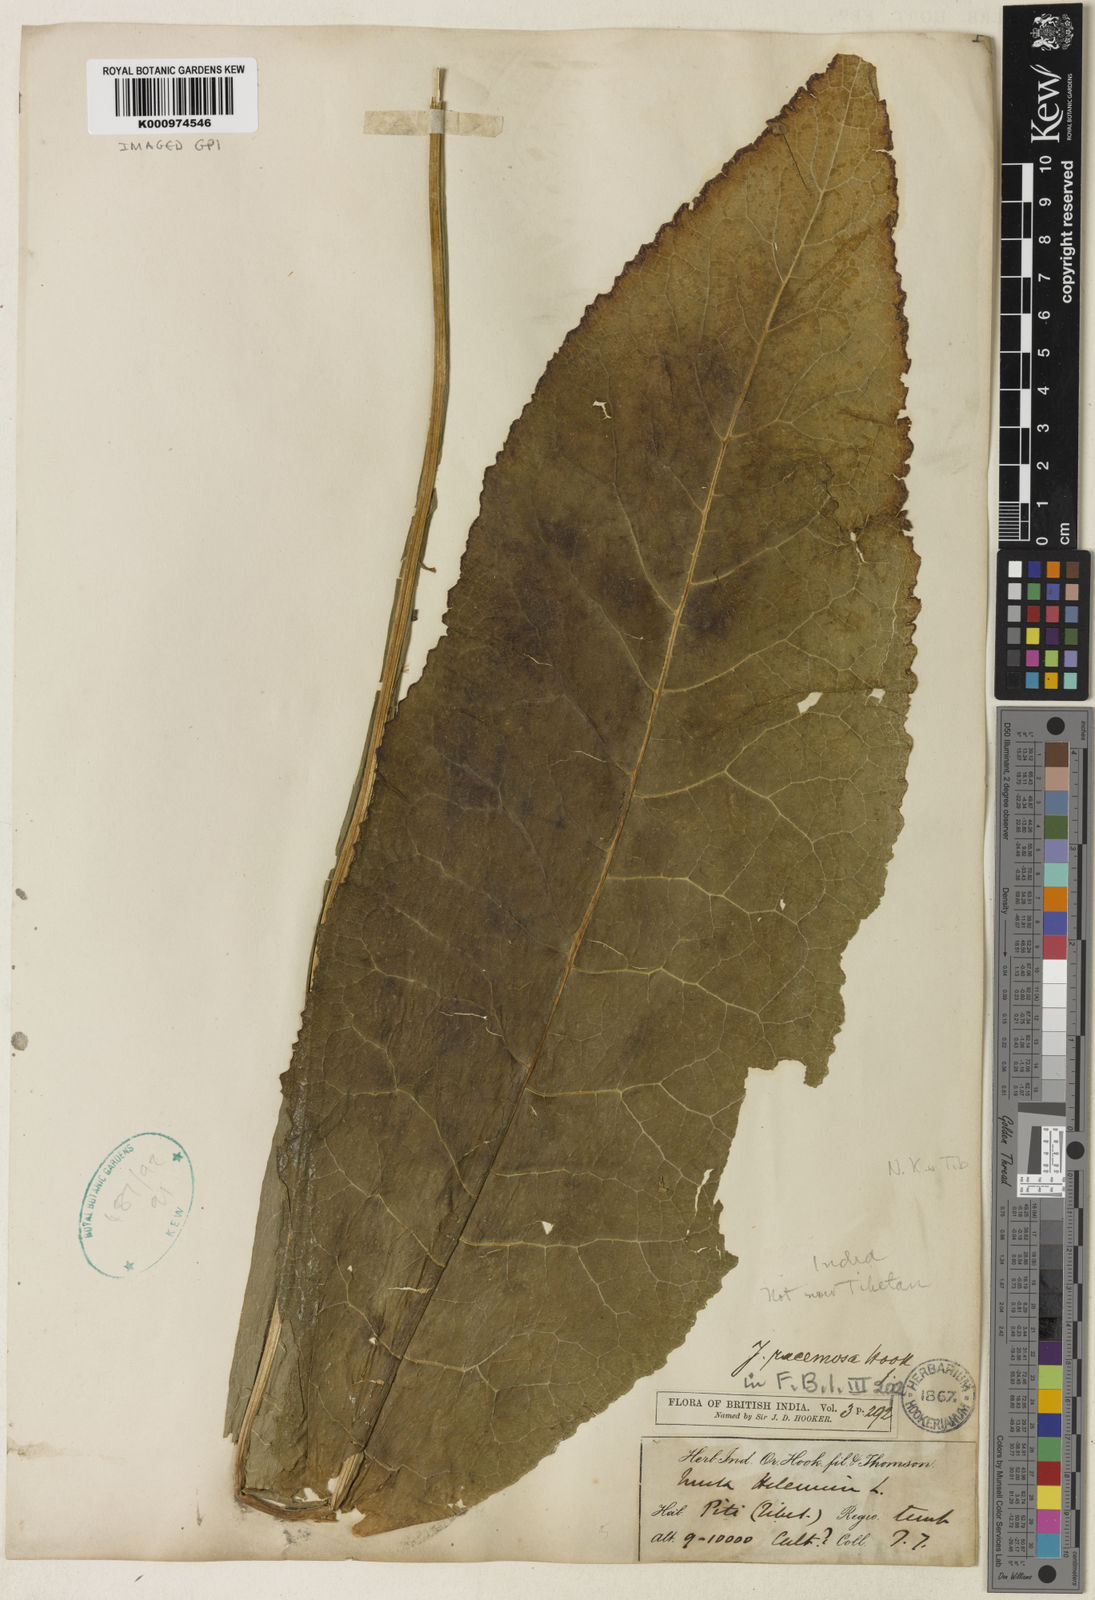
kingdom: Plantae
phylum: Tracheophyta
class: Magnoliopsida
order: Asterales
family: Asteraceae
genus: Inula
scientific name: Inula racemosa
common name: Indian elecampane
